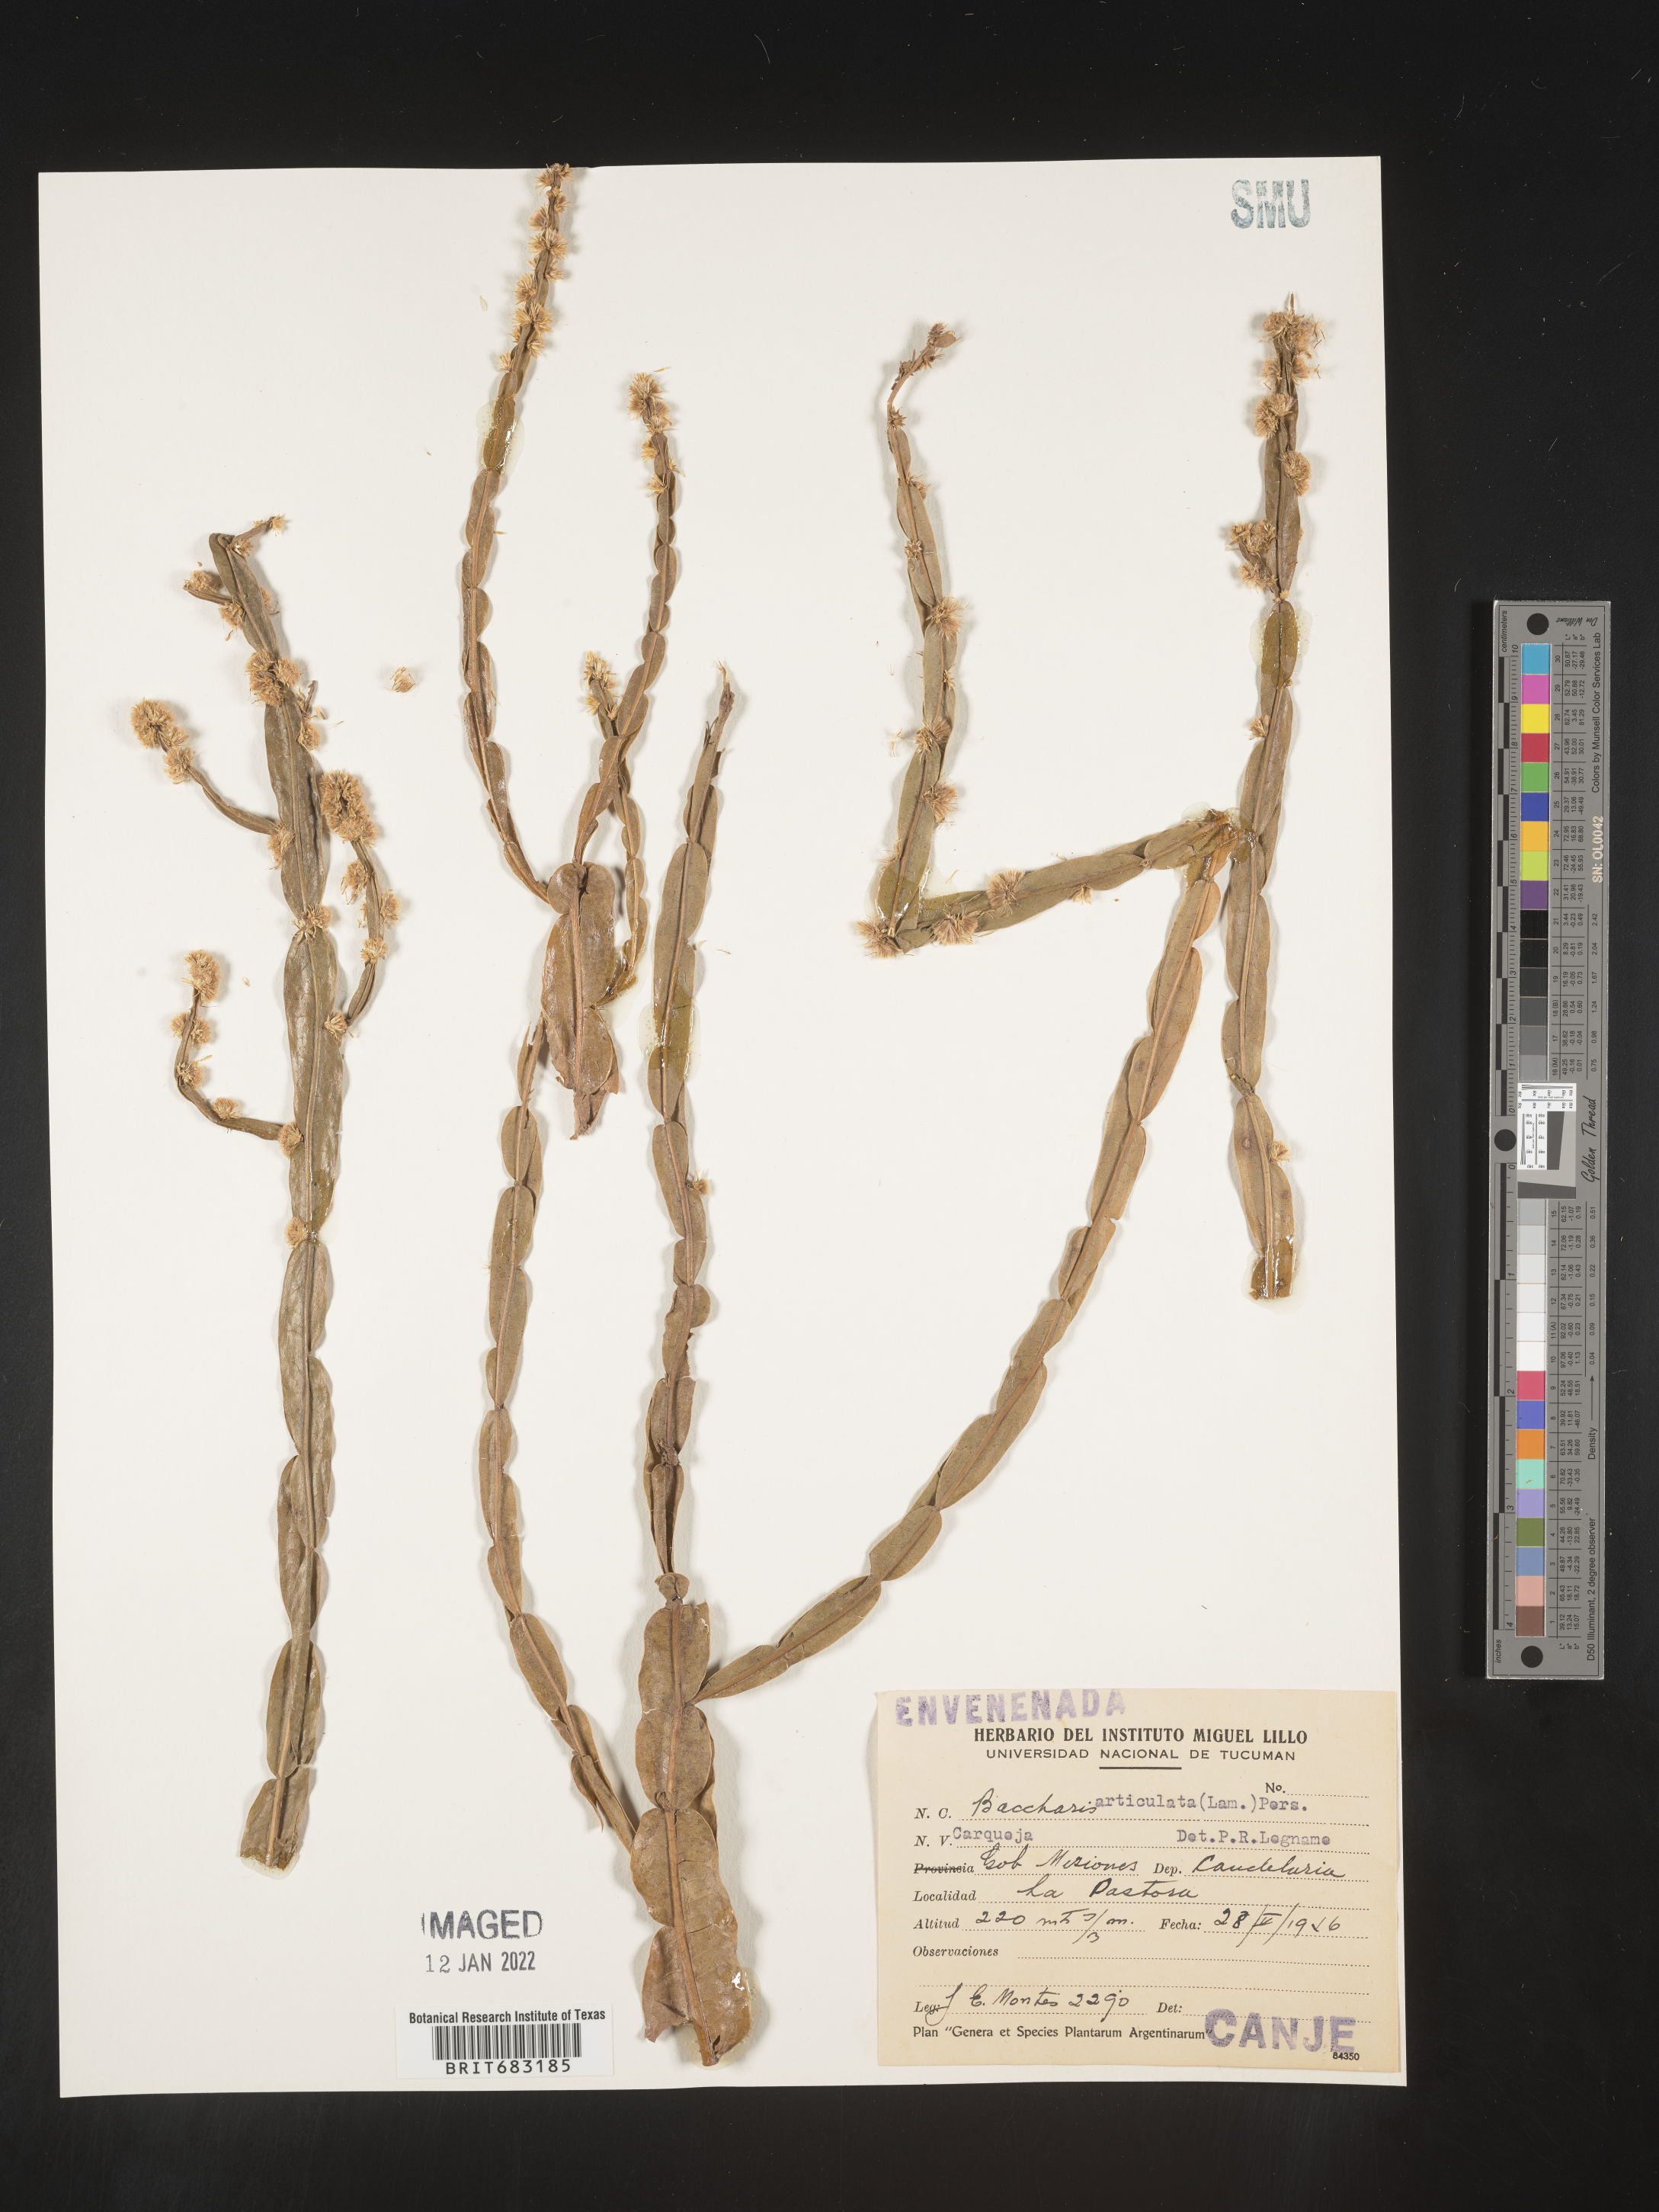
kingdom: Plantae
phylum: Tracheophyta
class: Magnoliopsida
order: Asterales
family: Asteraceae
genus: Baccharis
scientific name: Baccharis
